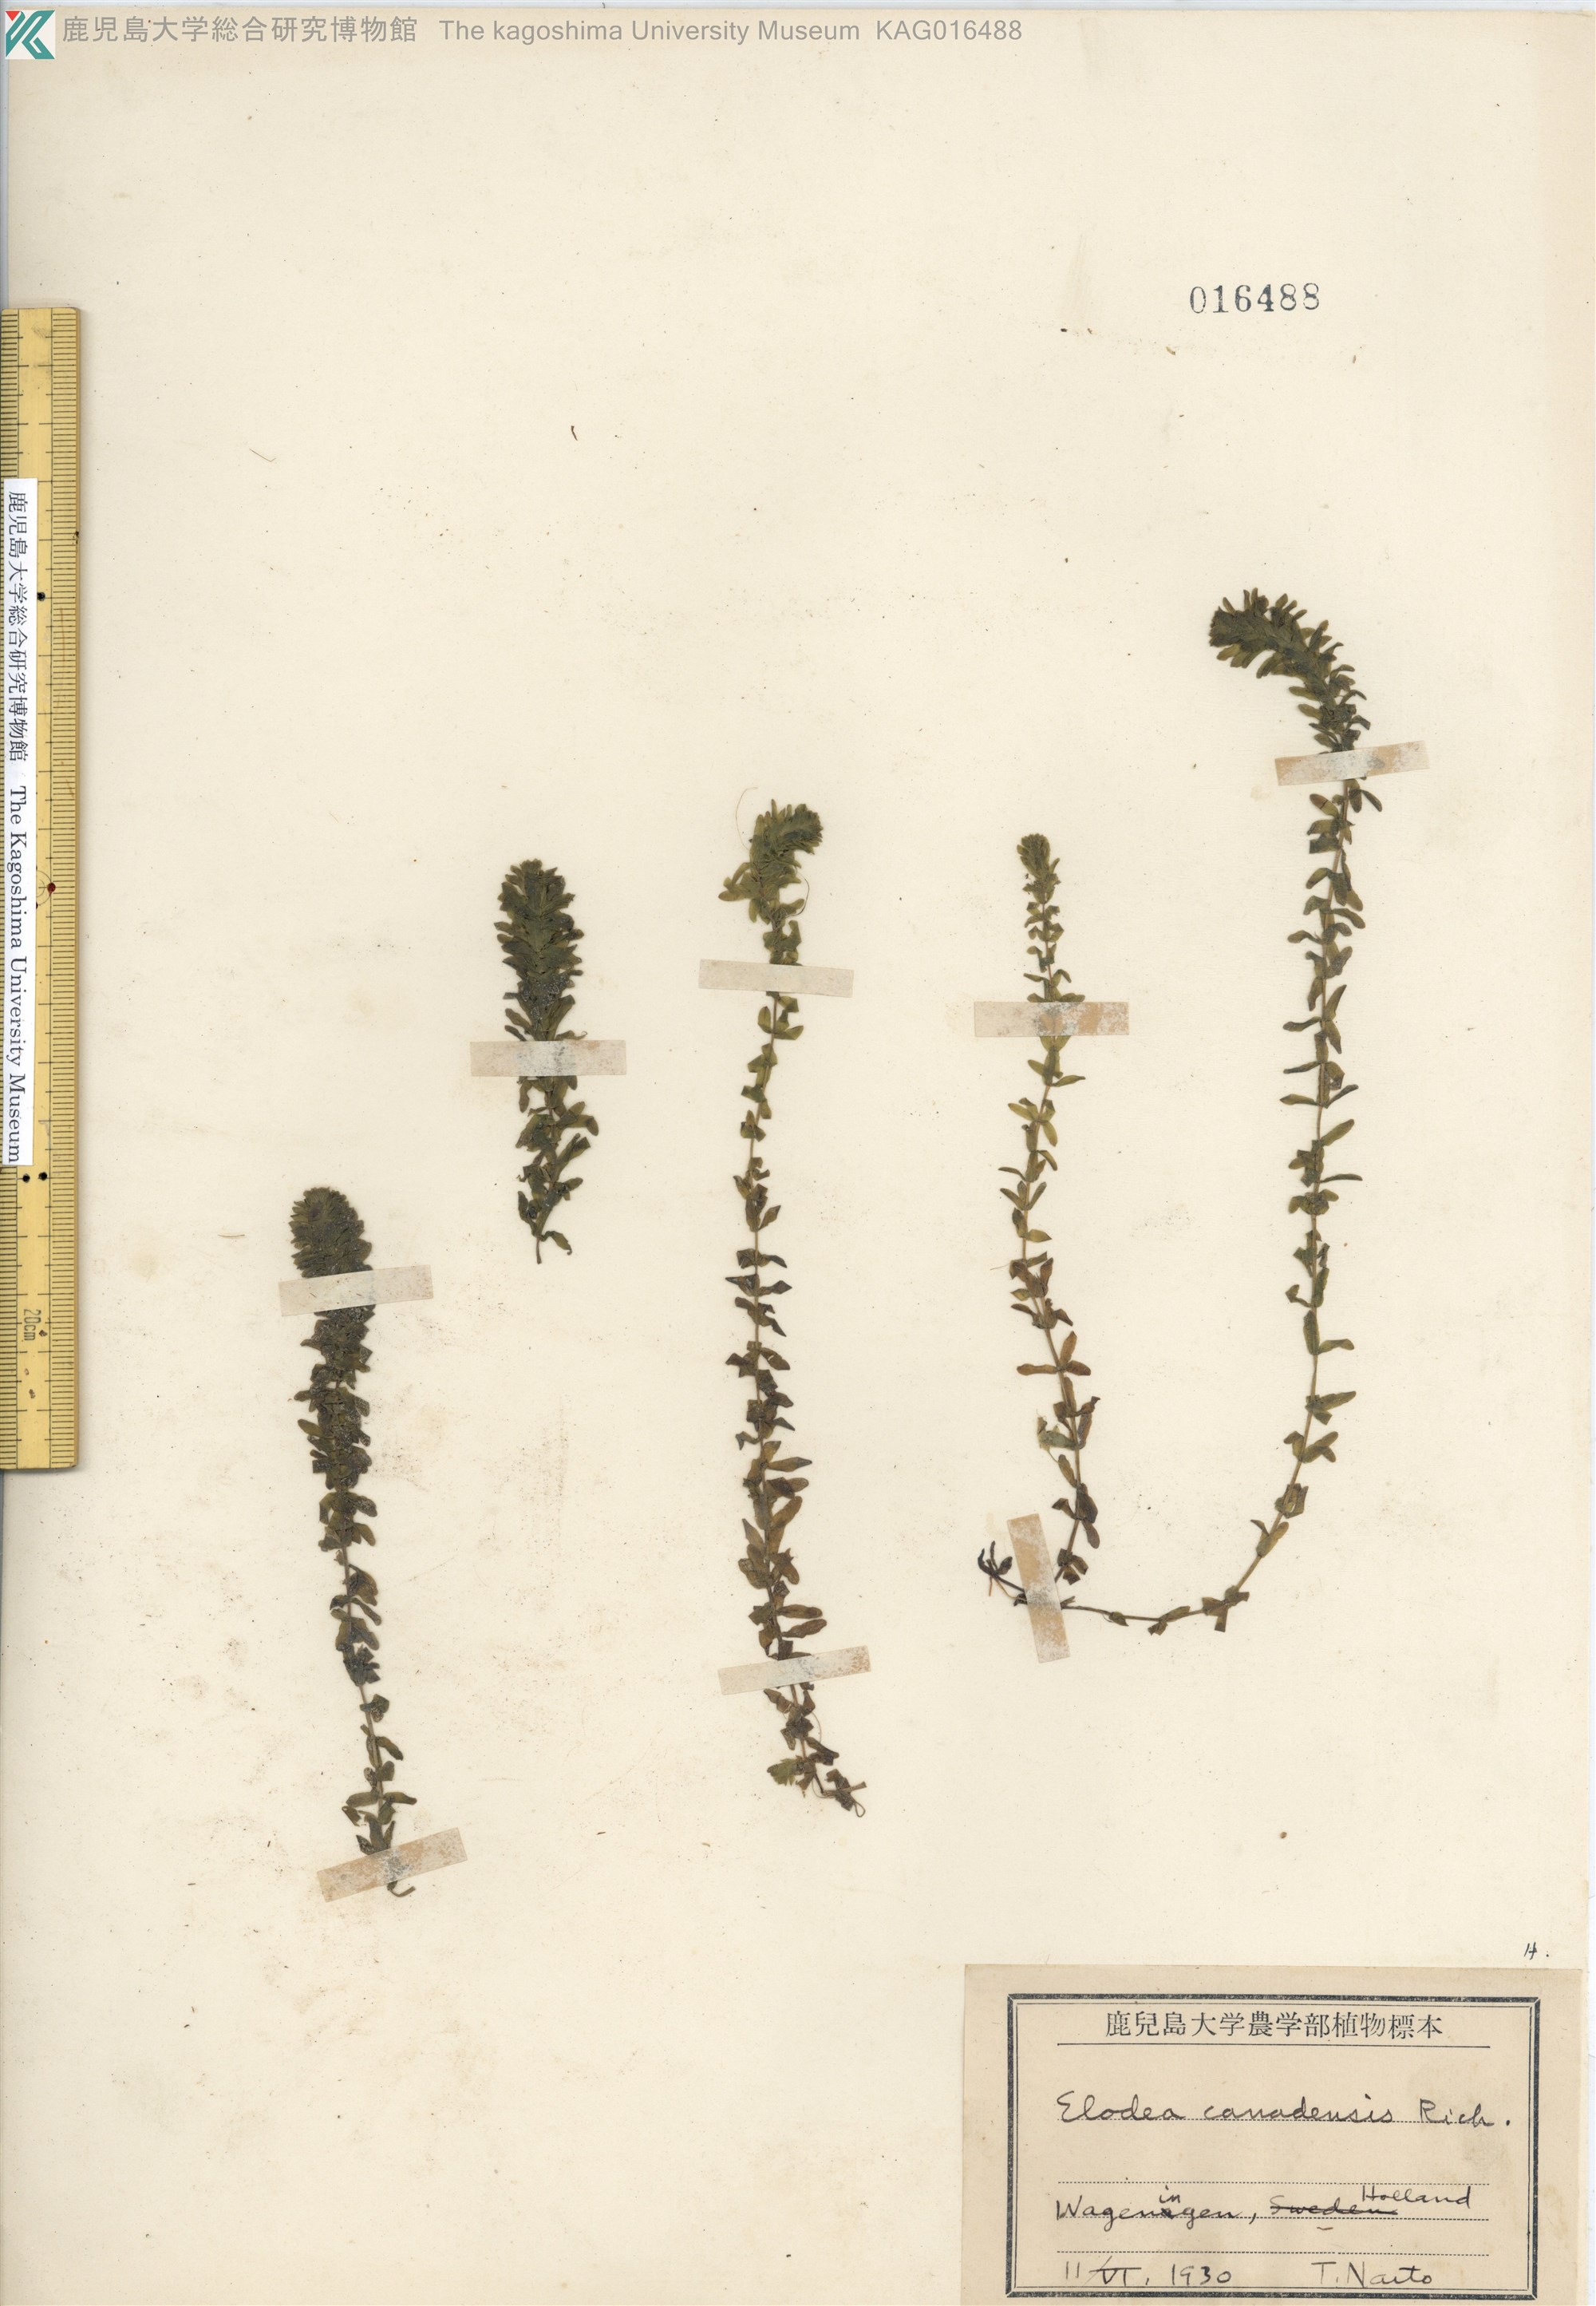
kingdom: Plantae
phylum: Tracheophyta
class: Liliopsida
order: Alismatales
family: Hydrocharitaceae
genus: Elodea
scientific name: Elodea
